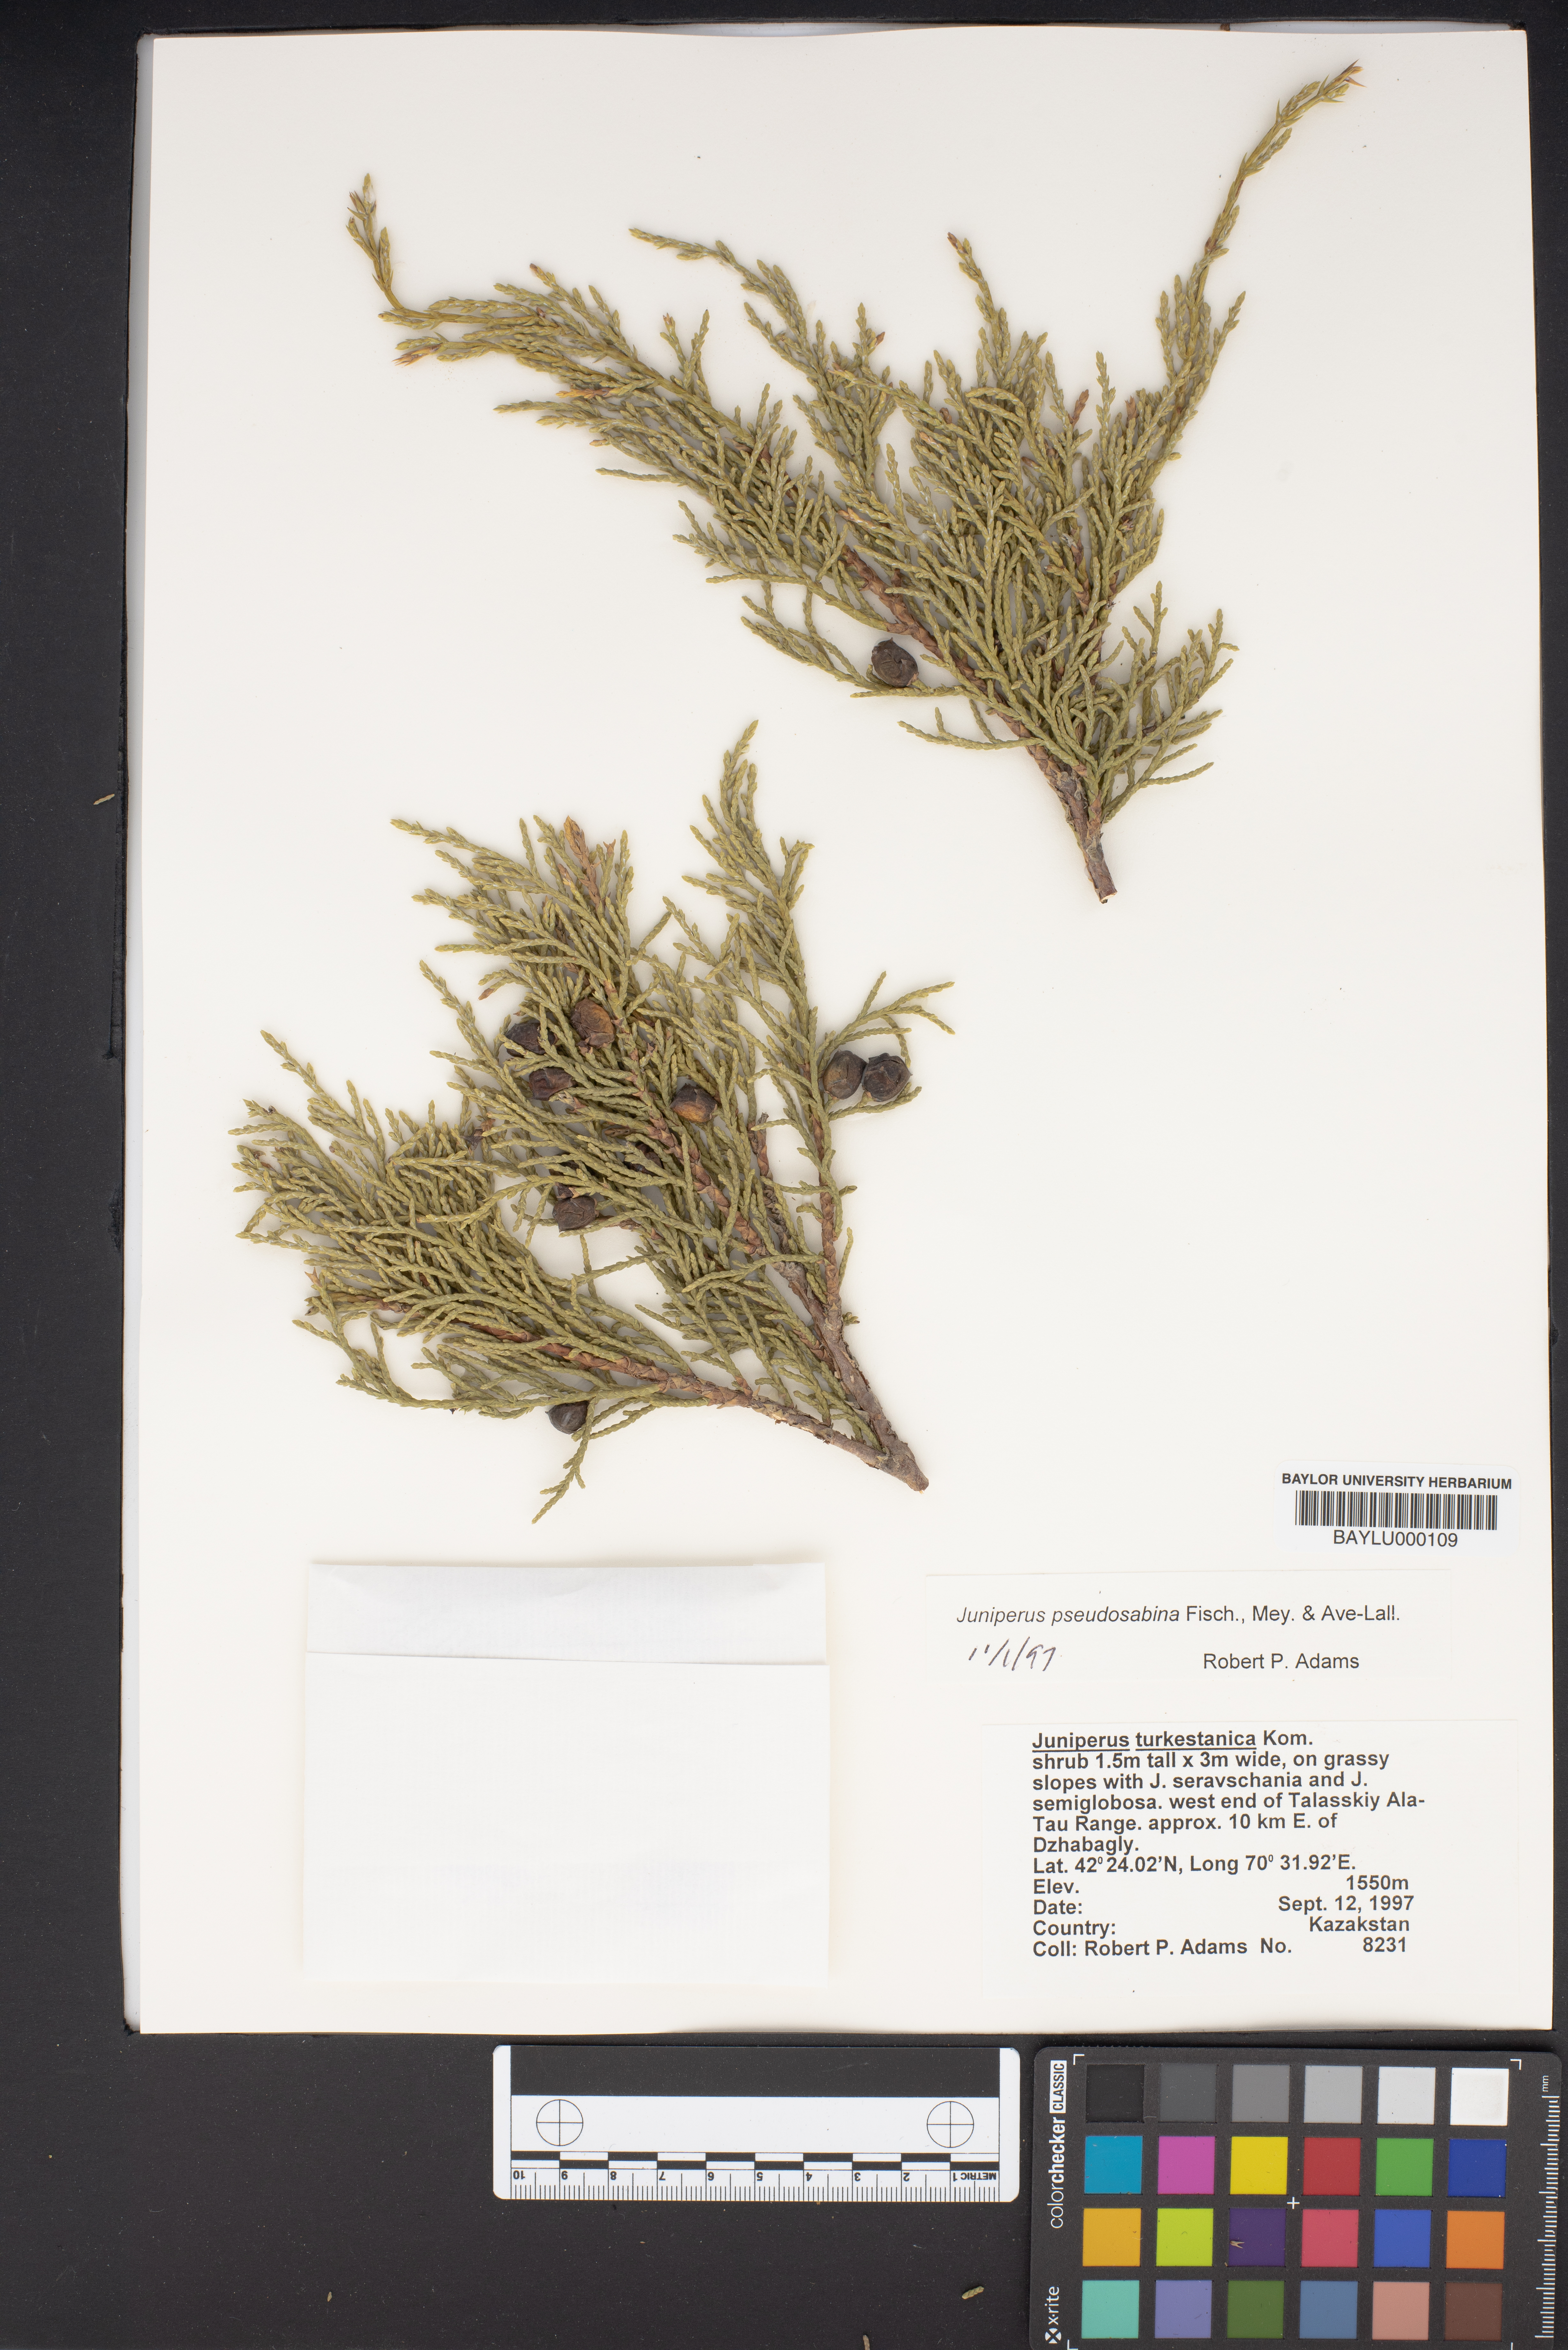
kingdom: Plantae
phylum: Tracheophyta
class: Pinopsida
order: Pinales
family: Cupressaceae
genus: Juniperus
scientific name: Juniperus pseudosabina
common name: Turkestan juniper
